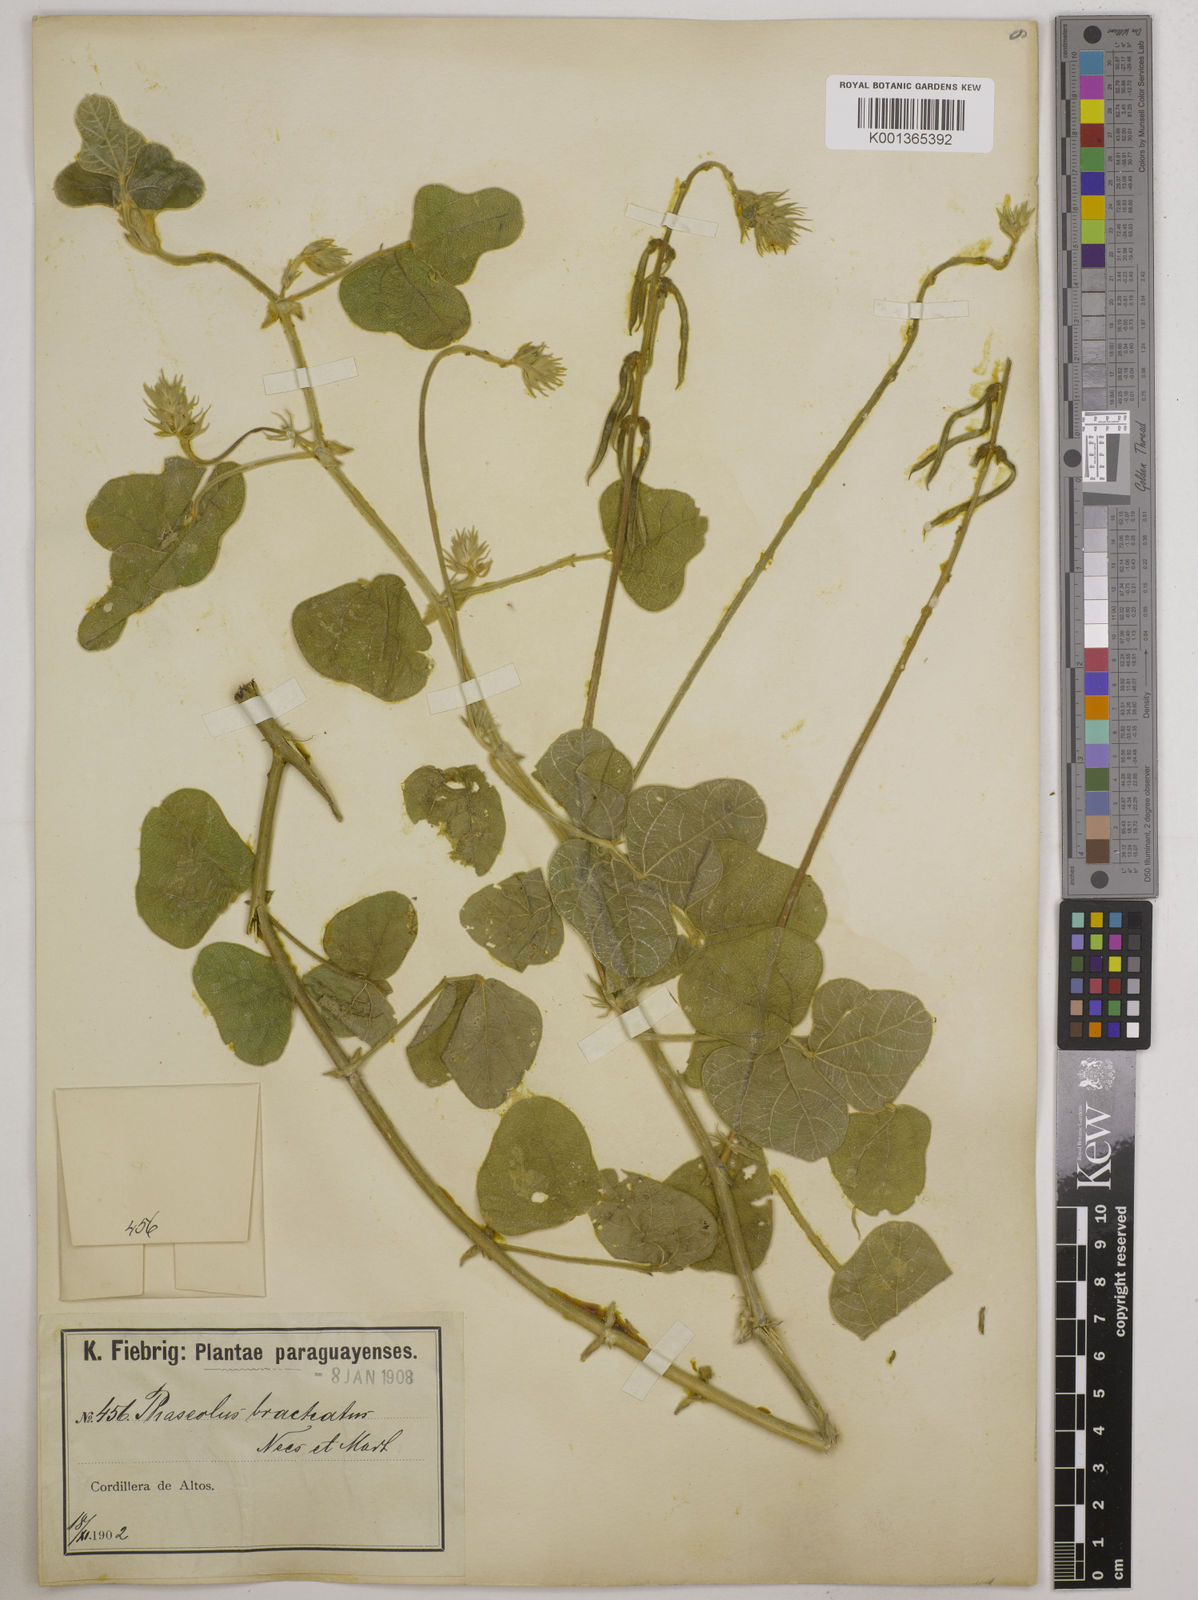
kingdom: Plantae
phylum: Tracheophyta
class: Magnoliopsida
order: Fabales
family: Fabaceae
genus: Macroptilium
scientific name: Macroptilium bracteatum
